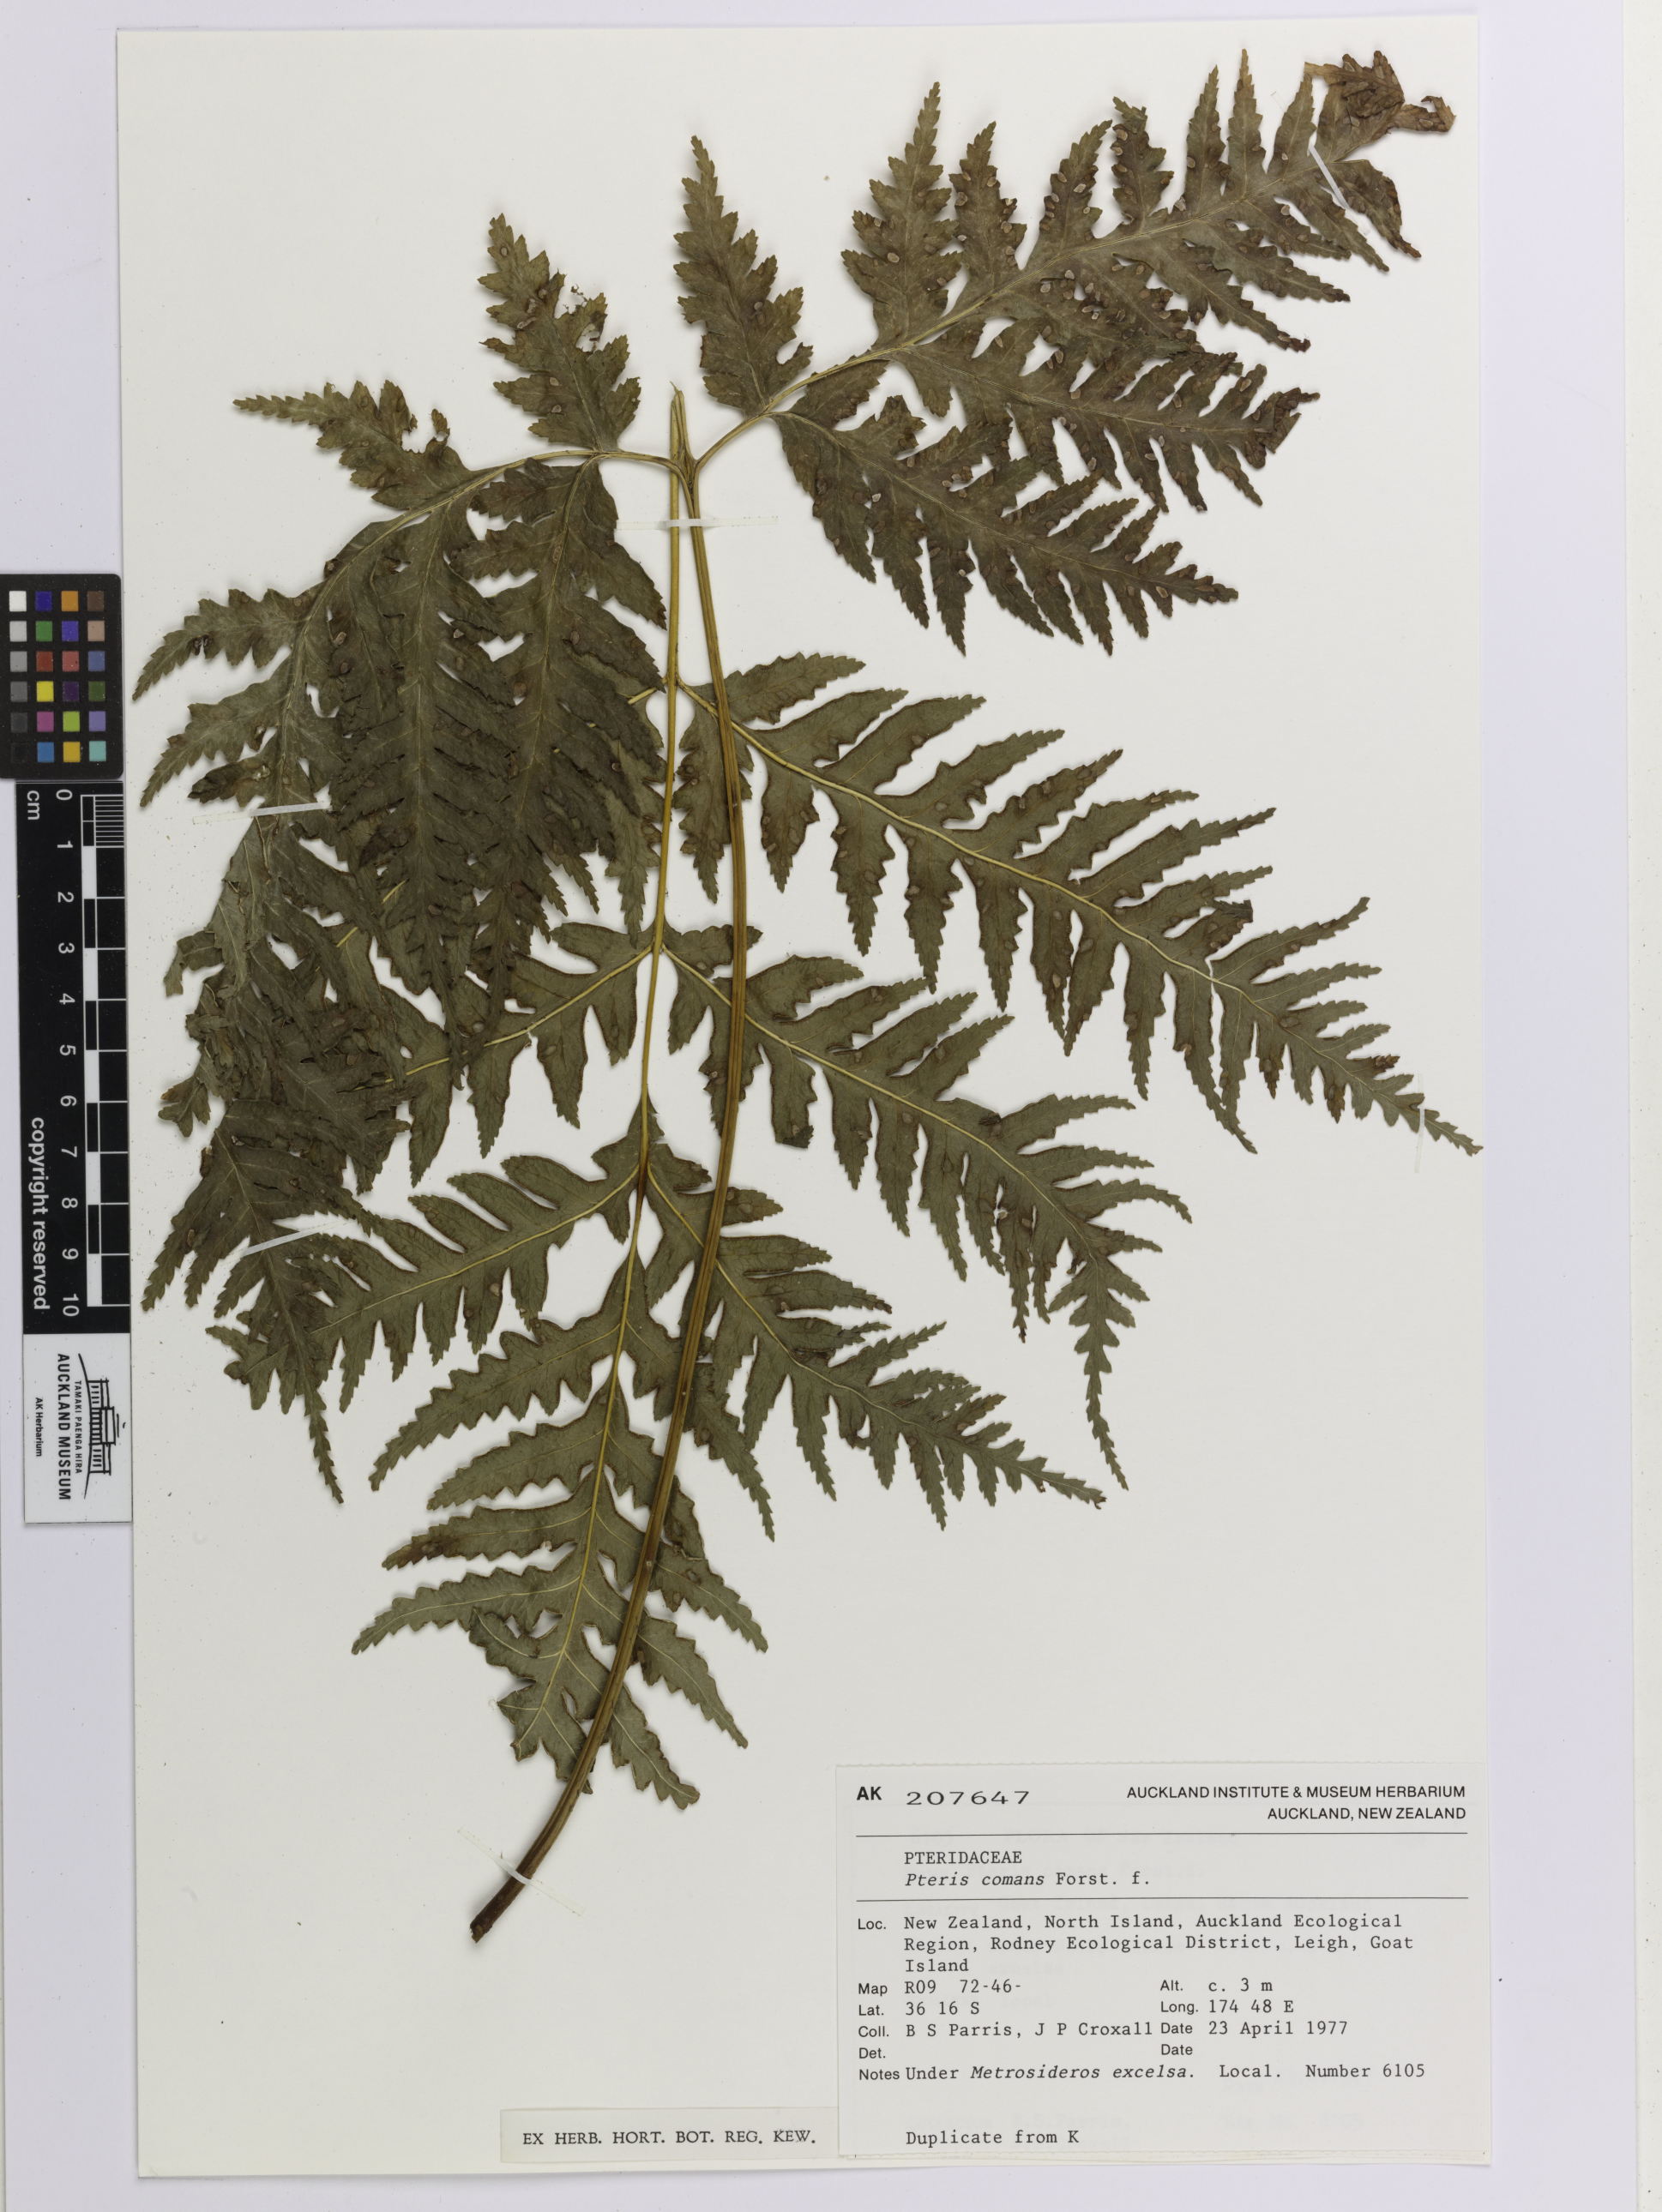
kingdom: Plantae
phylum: Tracheophyta
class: Polypodiopsida
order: Polypodiales
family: Pteridaceae
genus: Pteris
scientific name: Pteris comans
